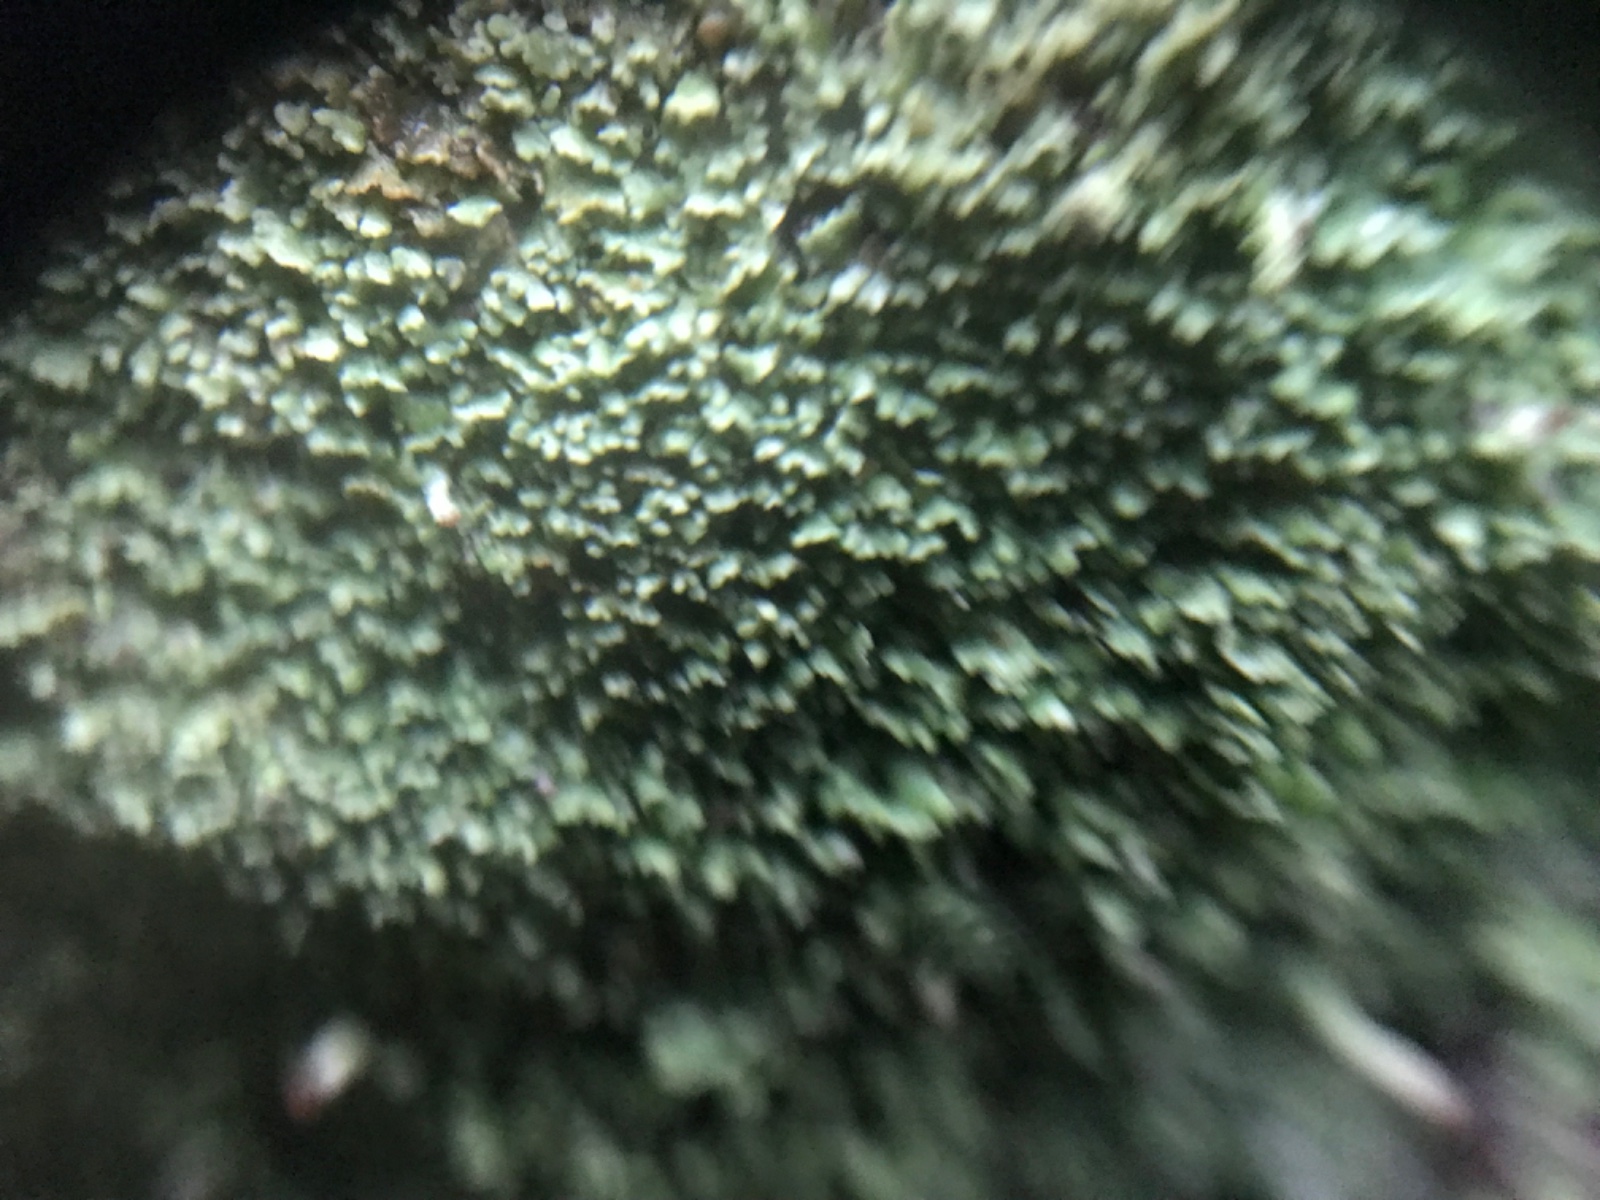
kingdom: Fungi
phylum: Ascomycota
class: Lecanoromycetes
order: Lecanorales
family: Cladoniaceae
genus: Cladonia
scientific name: Cladonia
